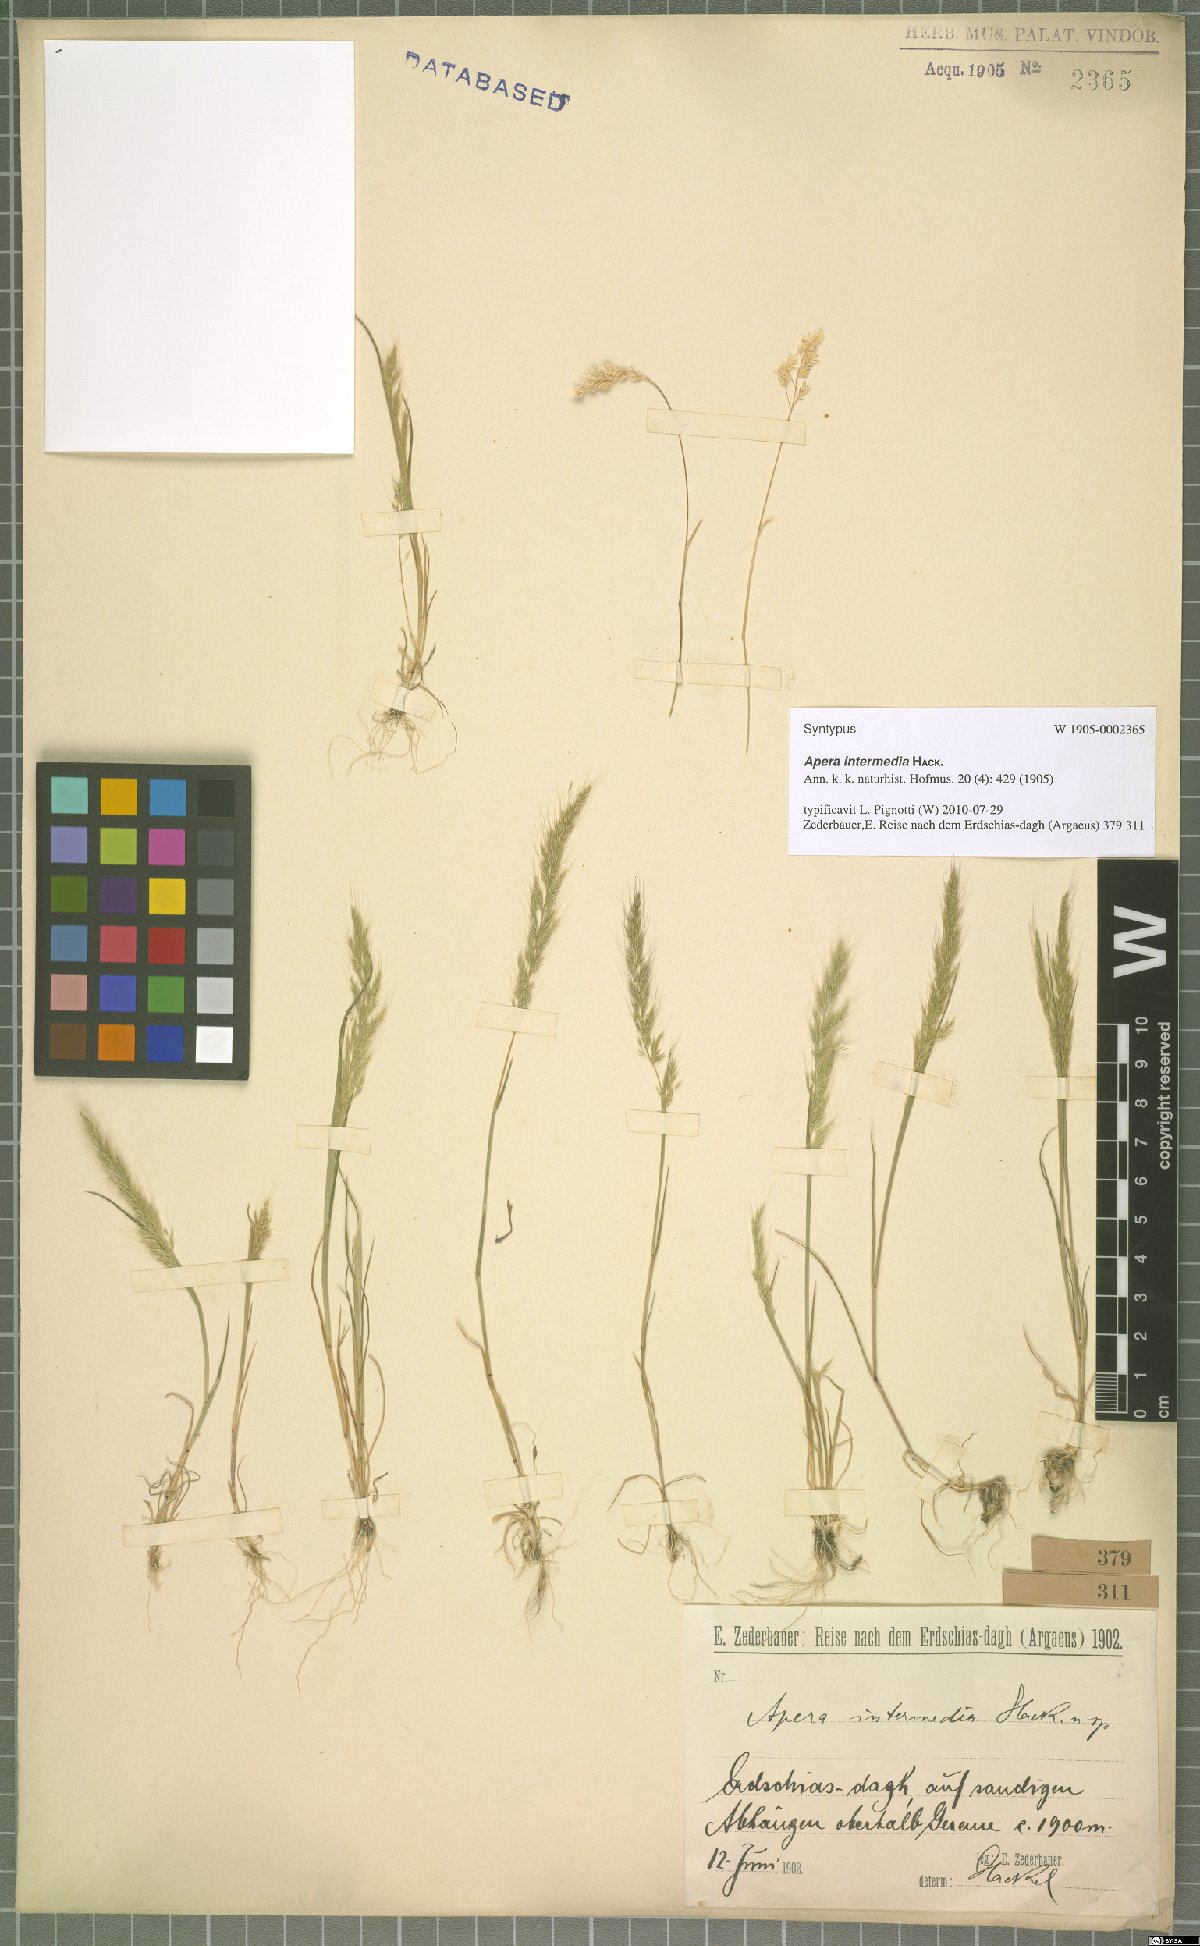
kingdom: Plantae
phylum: Tracheophyta
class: Liliopsida
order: Poales
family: Poaceae
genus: Apera
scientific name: Apera intermedia
